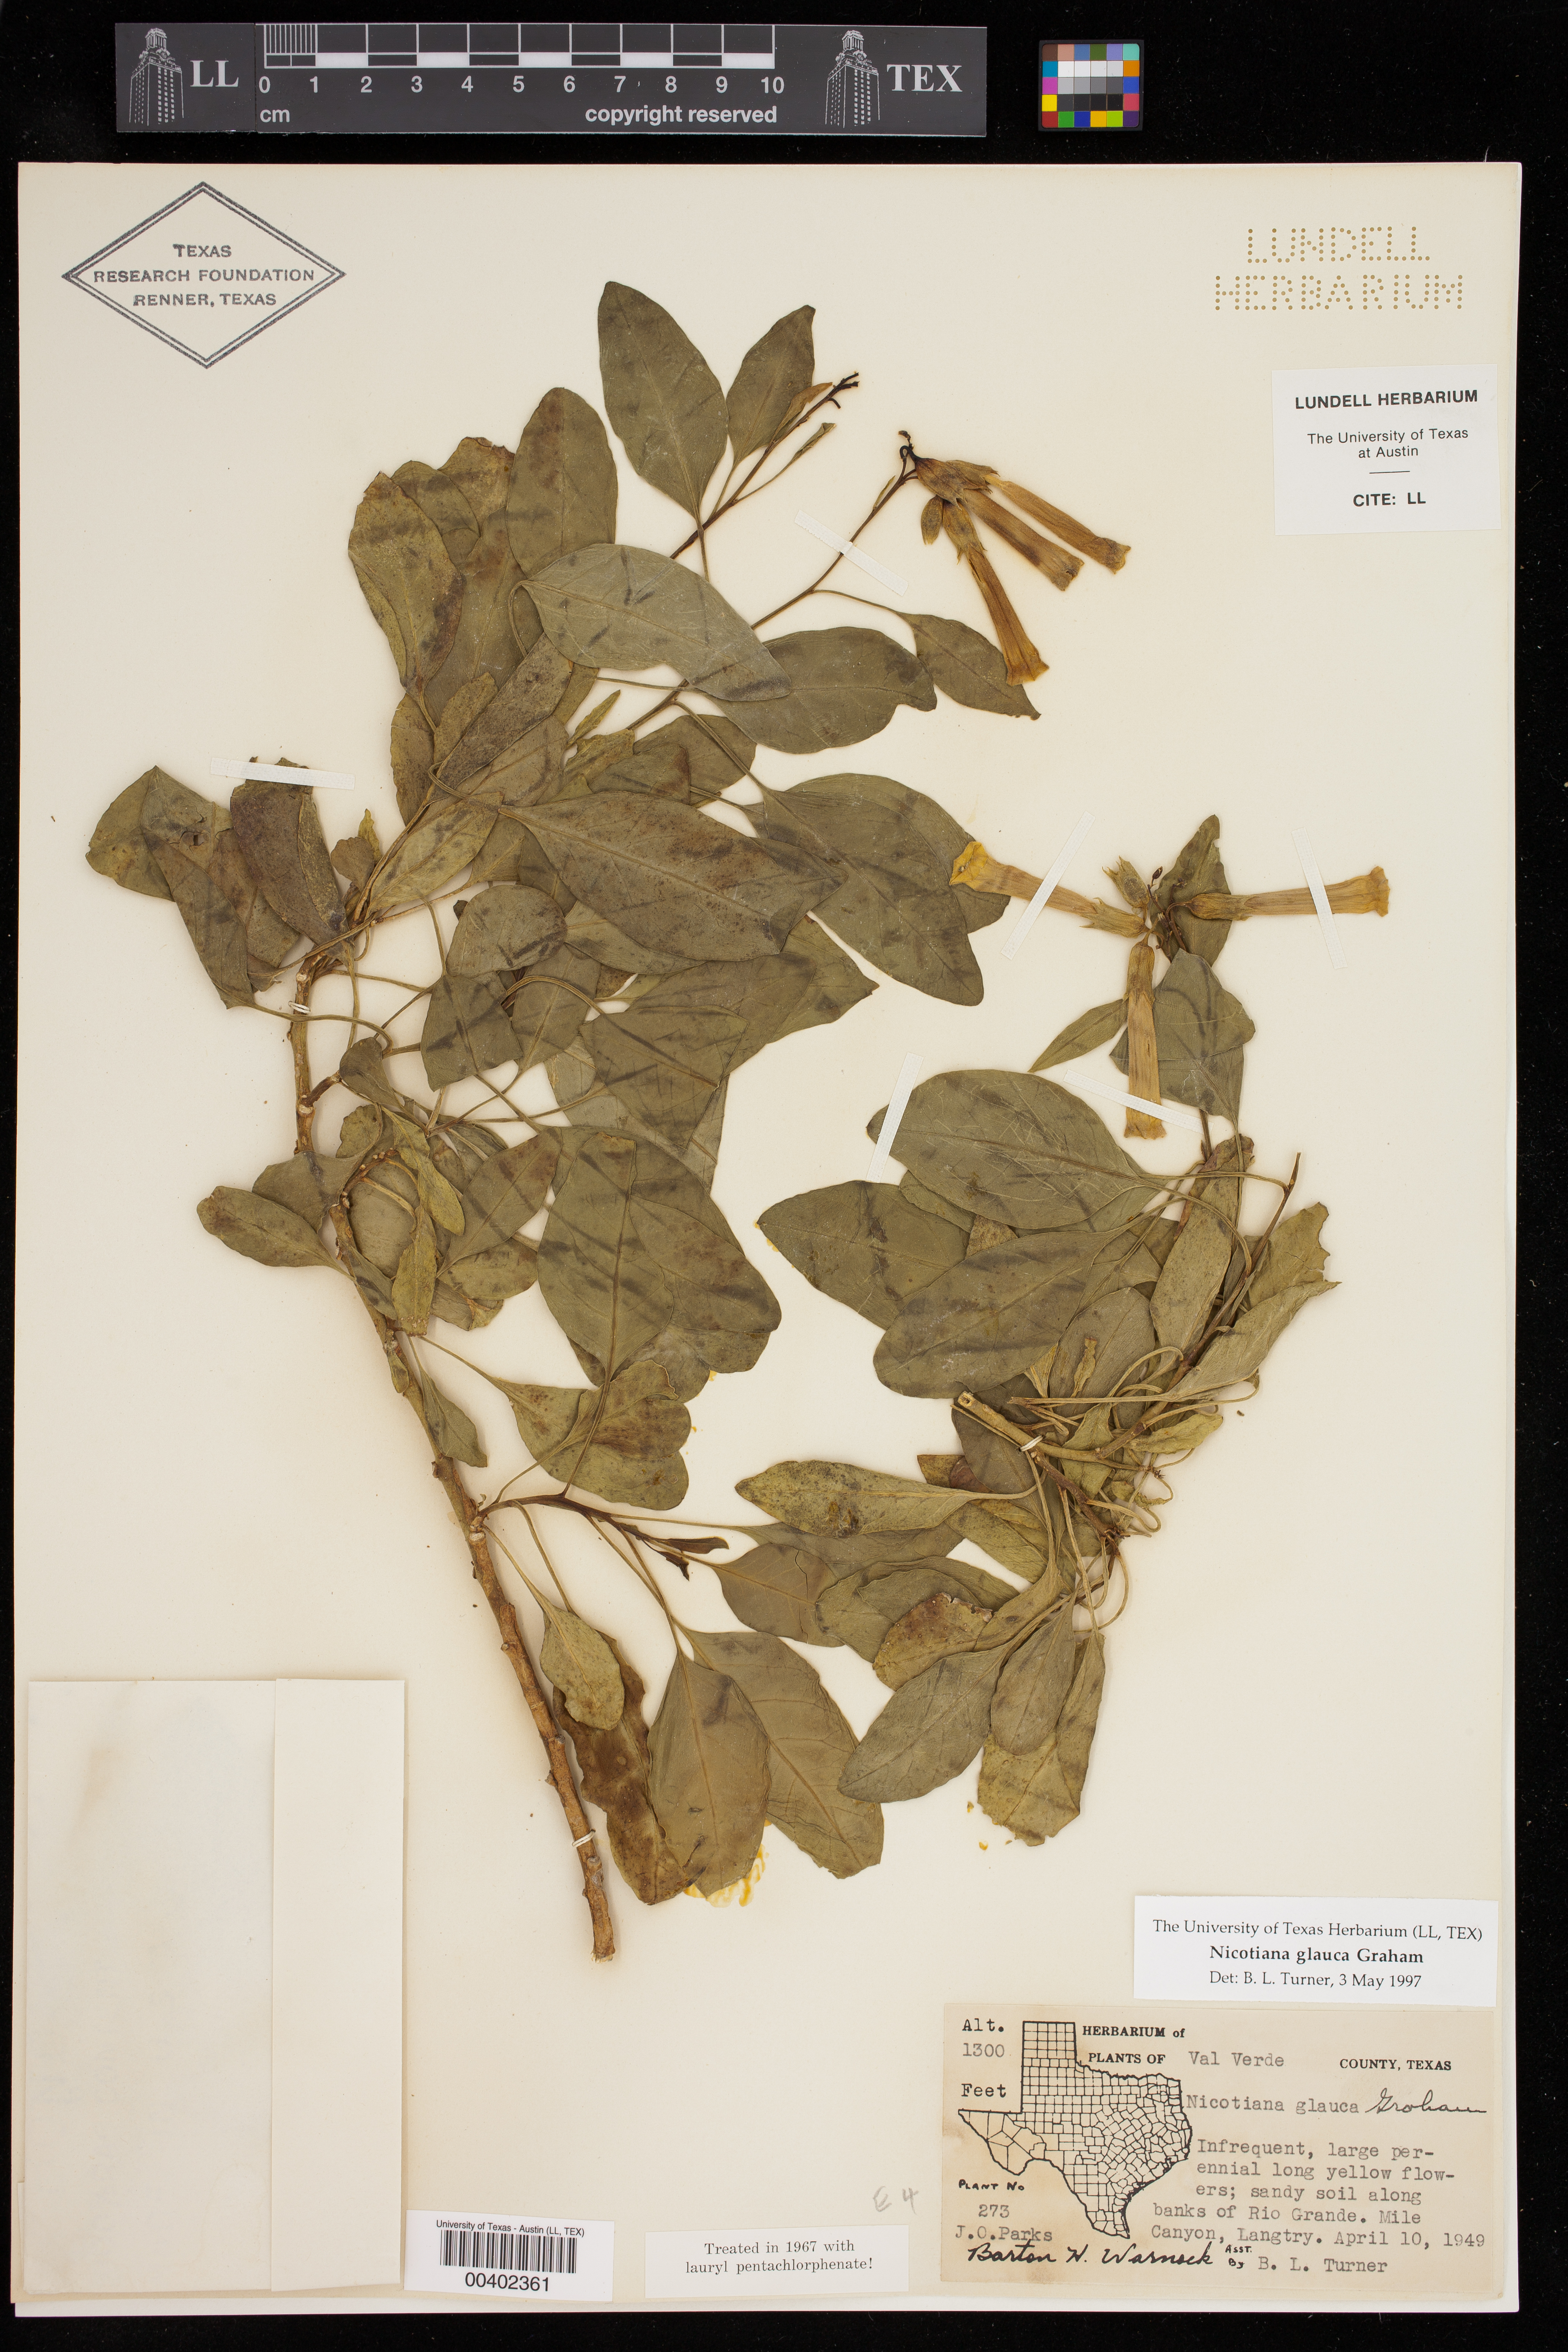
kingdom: Plantae
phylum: Tracheophyta
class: Magnoliopsida
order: Solanales
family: Solanaceae
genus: Nicotiana
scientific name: Nicotiana glauca
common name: Tree tobacco
